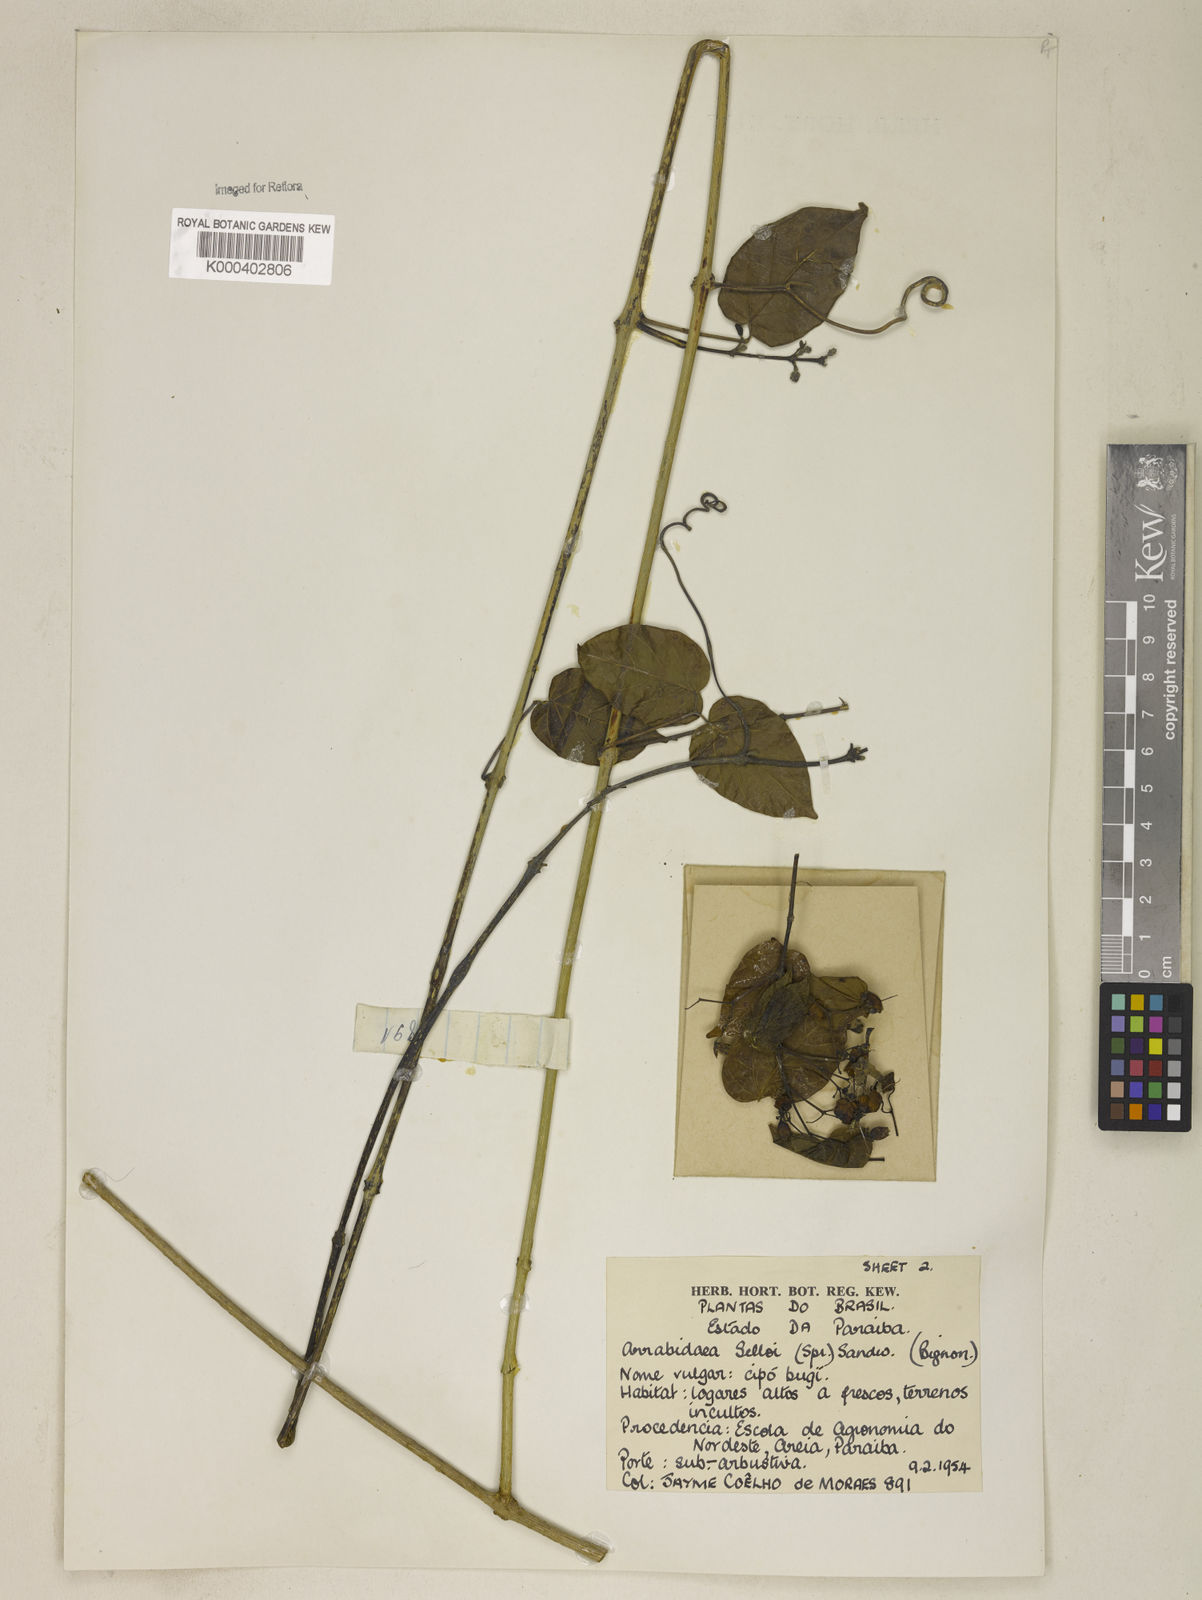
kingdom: Plantae
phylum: Tracheophyta
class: Magnoliopsida
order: Lamiales
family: Bignoniaceae
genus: Tanaecium
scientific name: Tanaecium selloi
